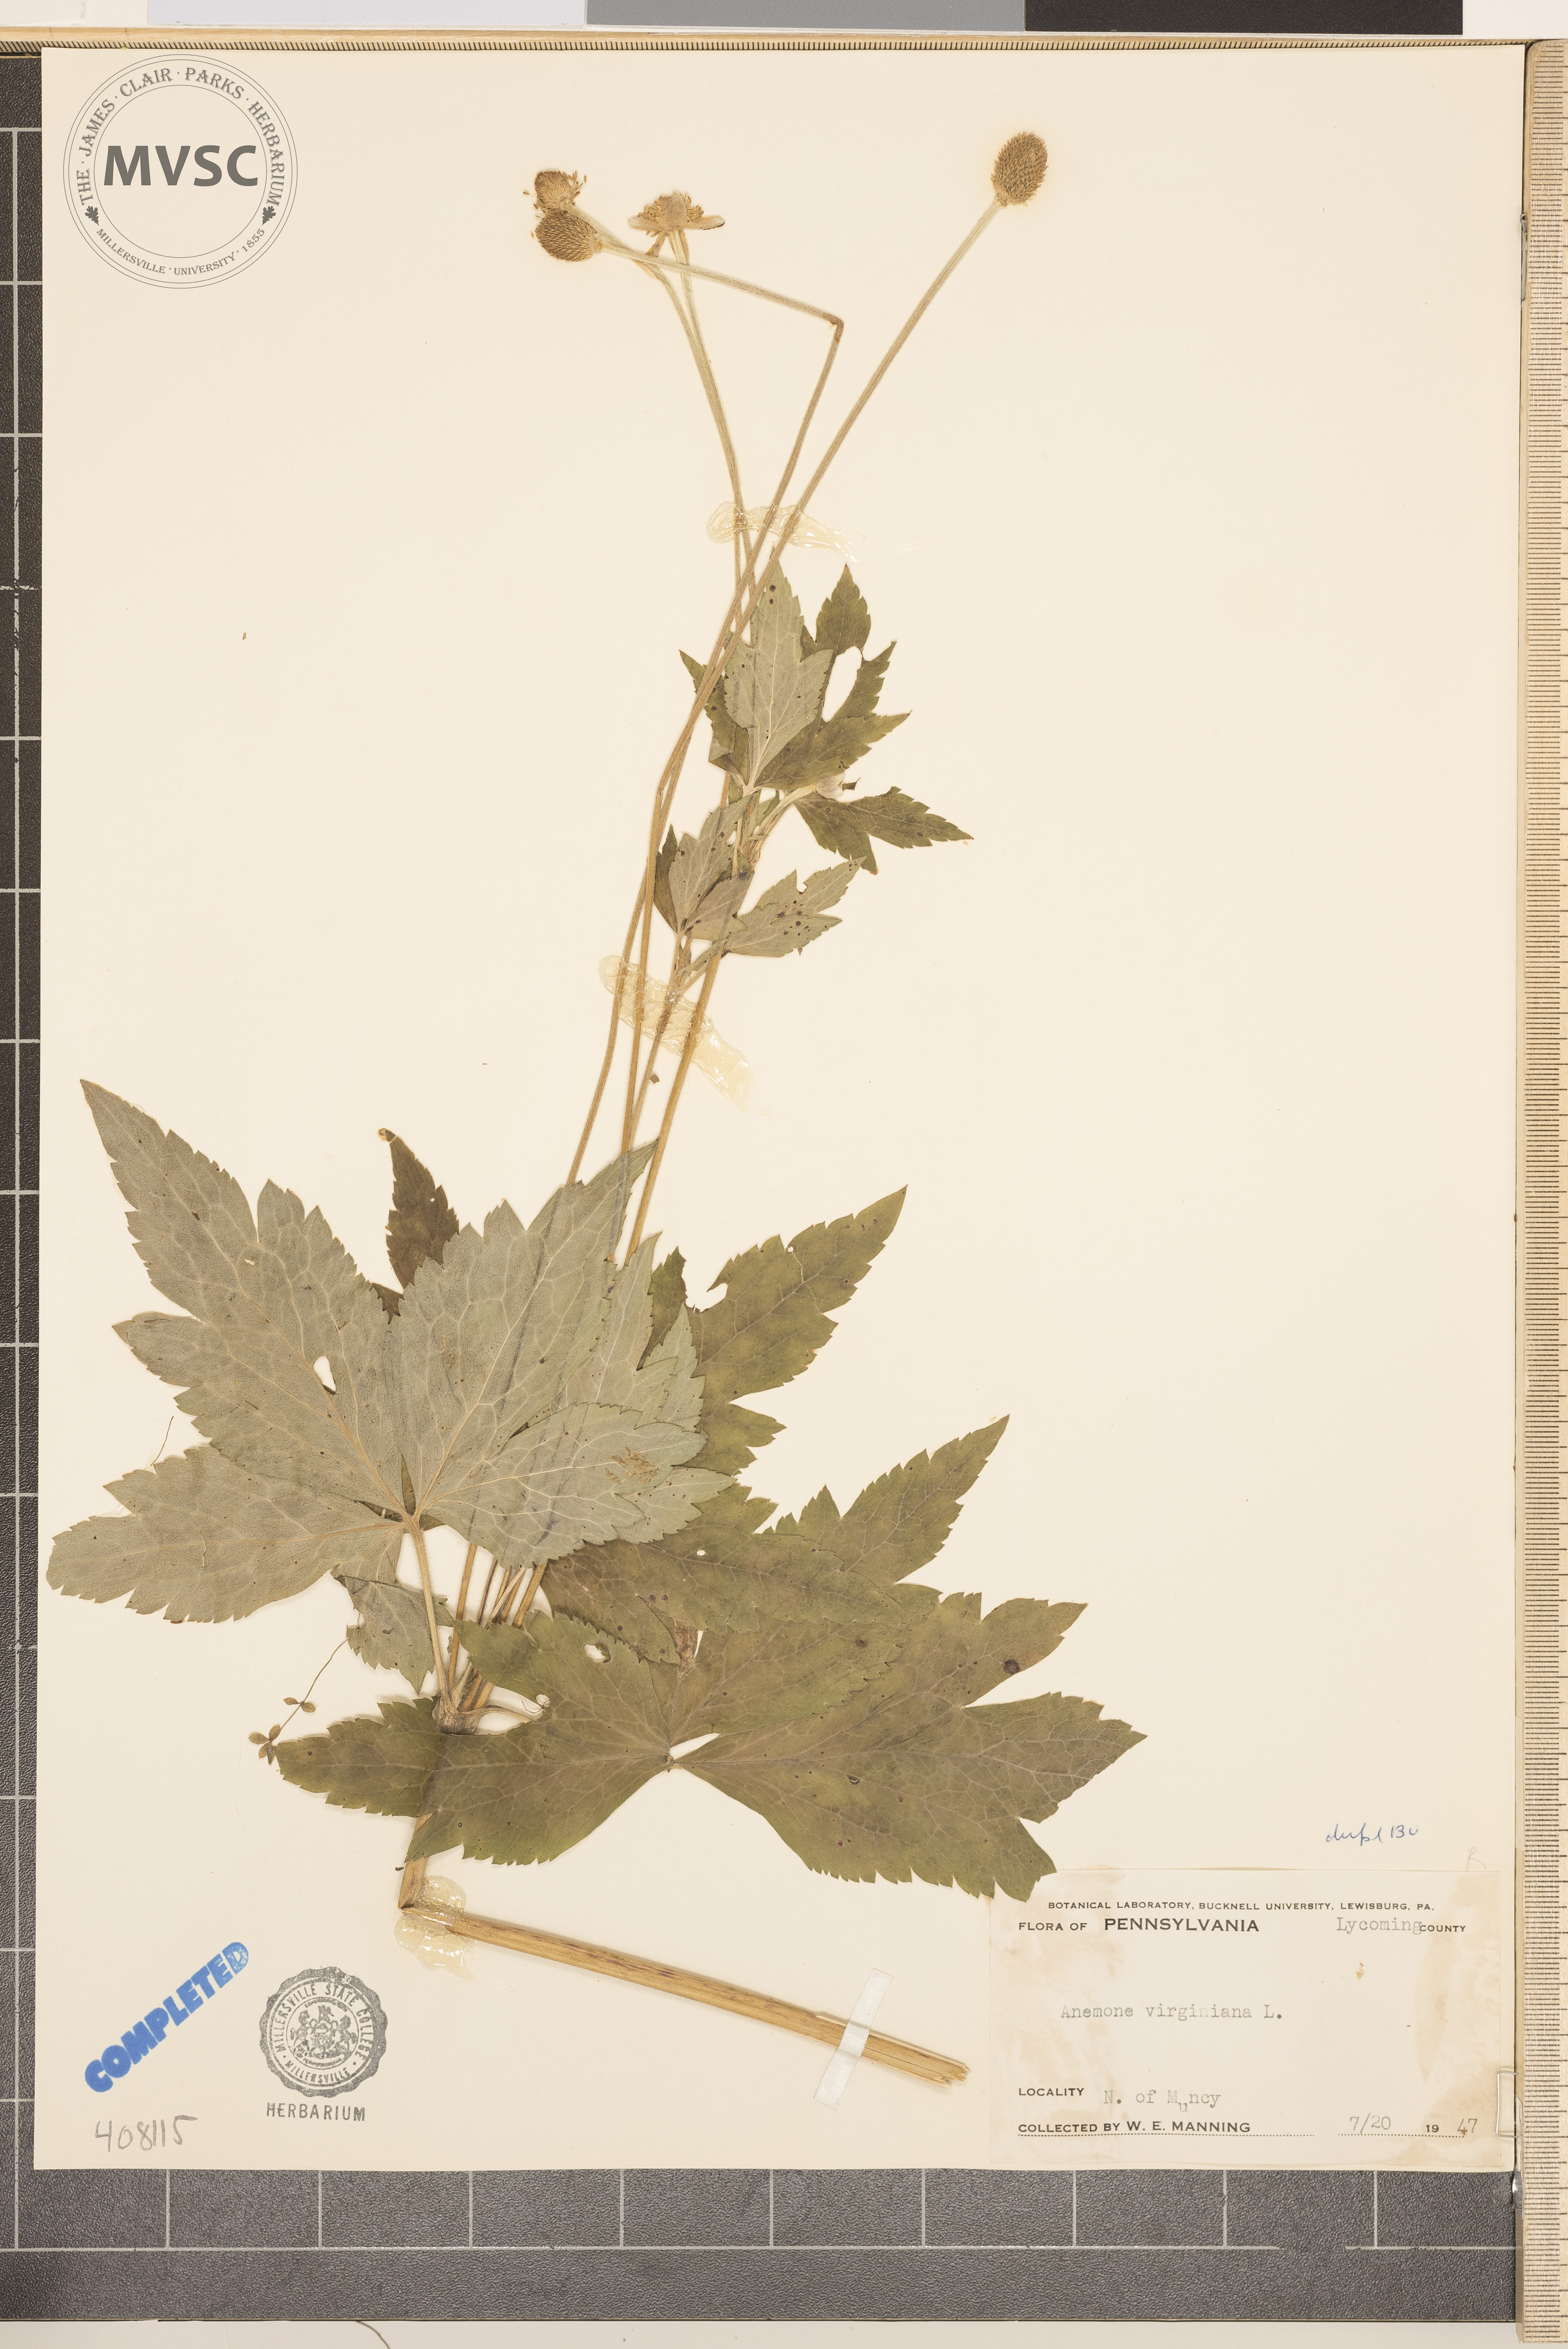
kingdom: Plantae
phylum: Tracheophyta
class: Magnoliopsida
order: Ranunculales
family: Ranunculaceae
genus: Anemone
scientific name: Anemone virginiana
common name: Tall anemone
